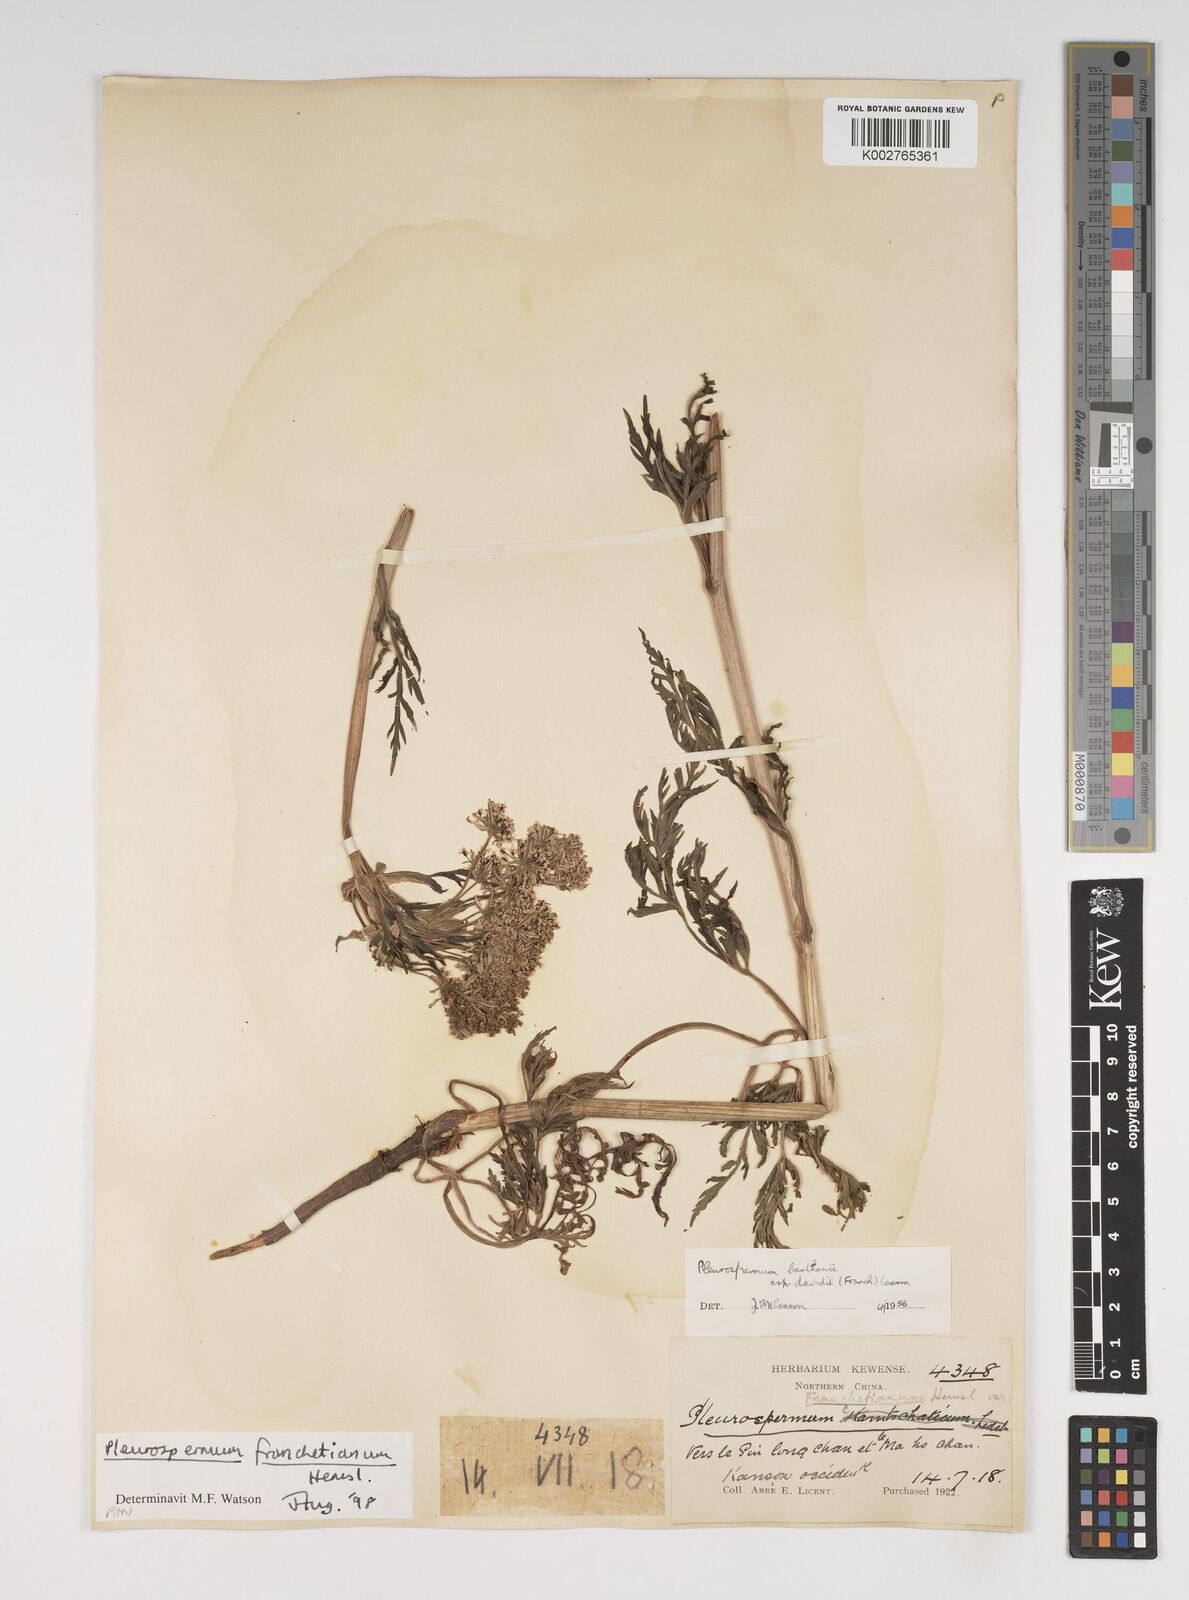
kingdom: Plantae
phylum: Tracheophyta
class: Magnoliopsida
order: Apiales
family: Apiaceae
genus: Hymenidium
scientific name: Hymenidium
